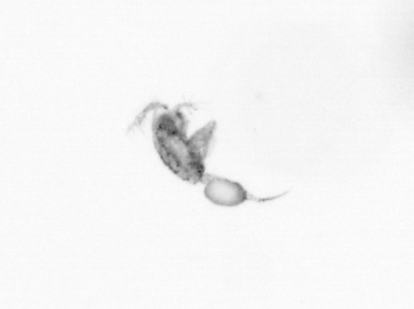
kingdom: Animalia
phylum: Arthropoda
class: Copepoda
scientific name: Copepoda
